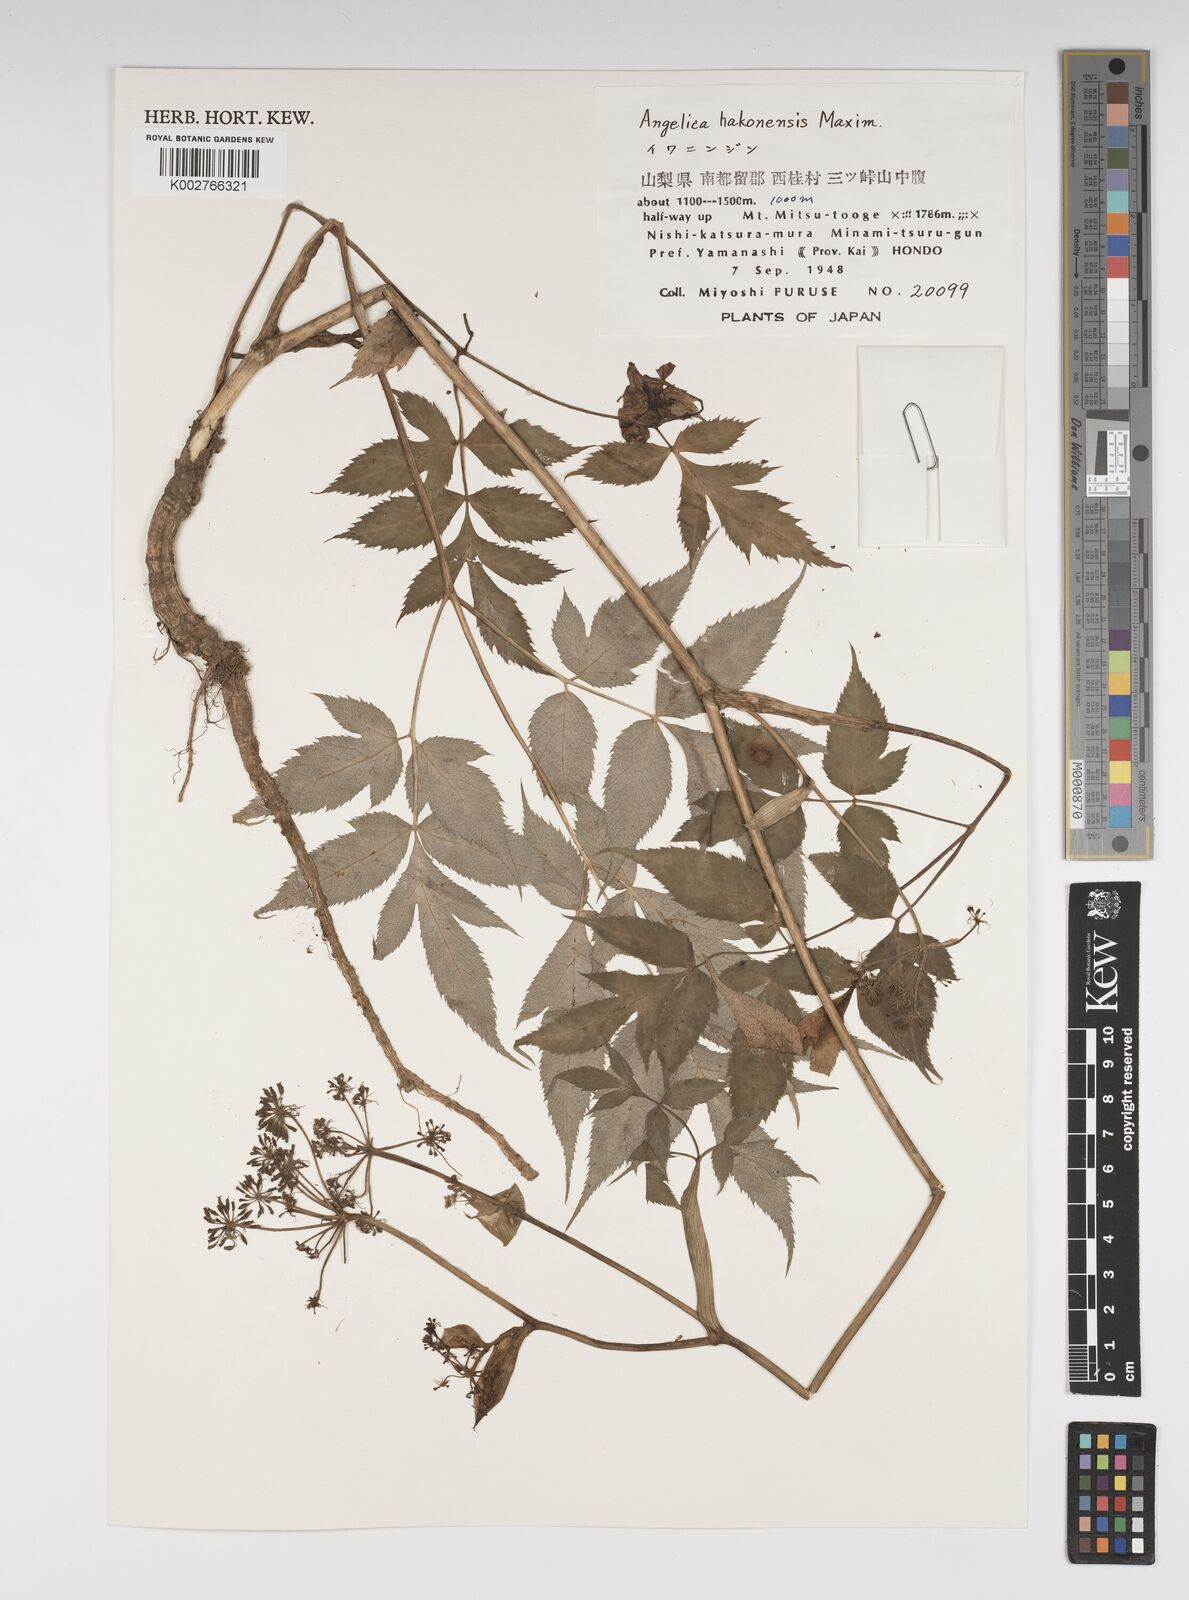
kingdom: Plantae
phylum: Tracheophyta
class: Magnoliopsida
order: Apiales
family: Apiaceae
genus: Angelica
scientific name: Angelica hakonensis
